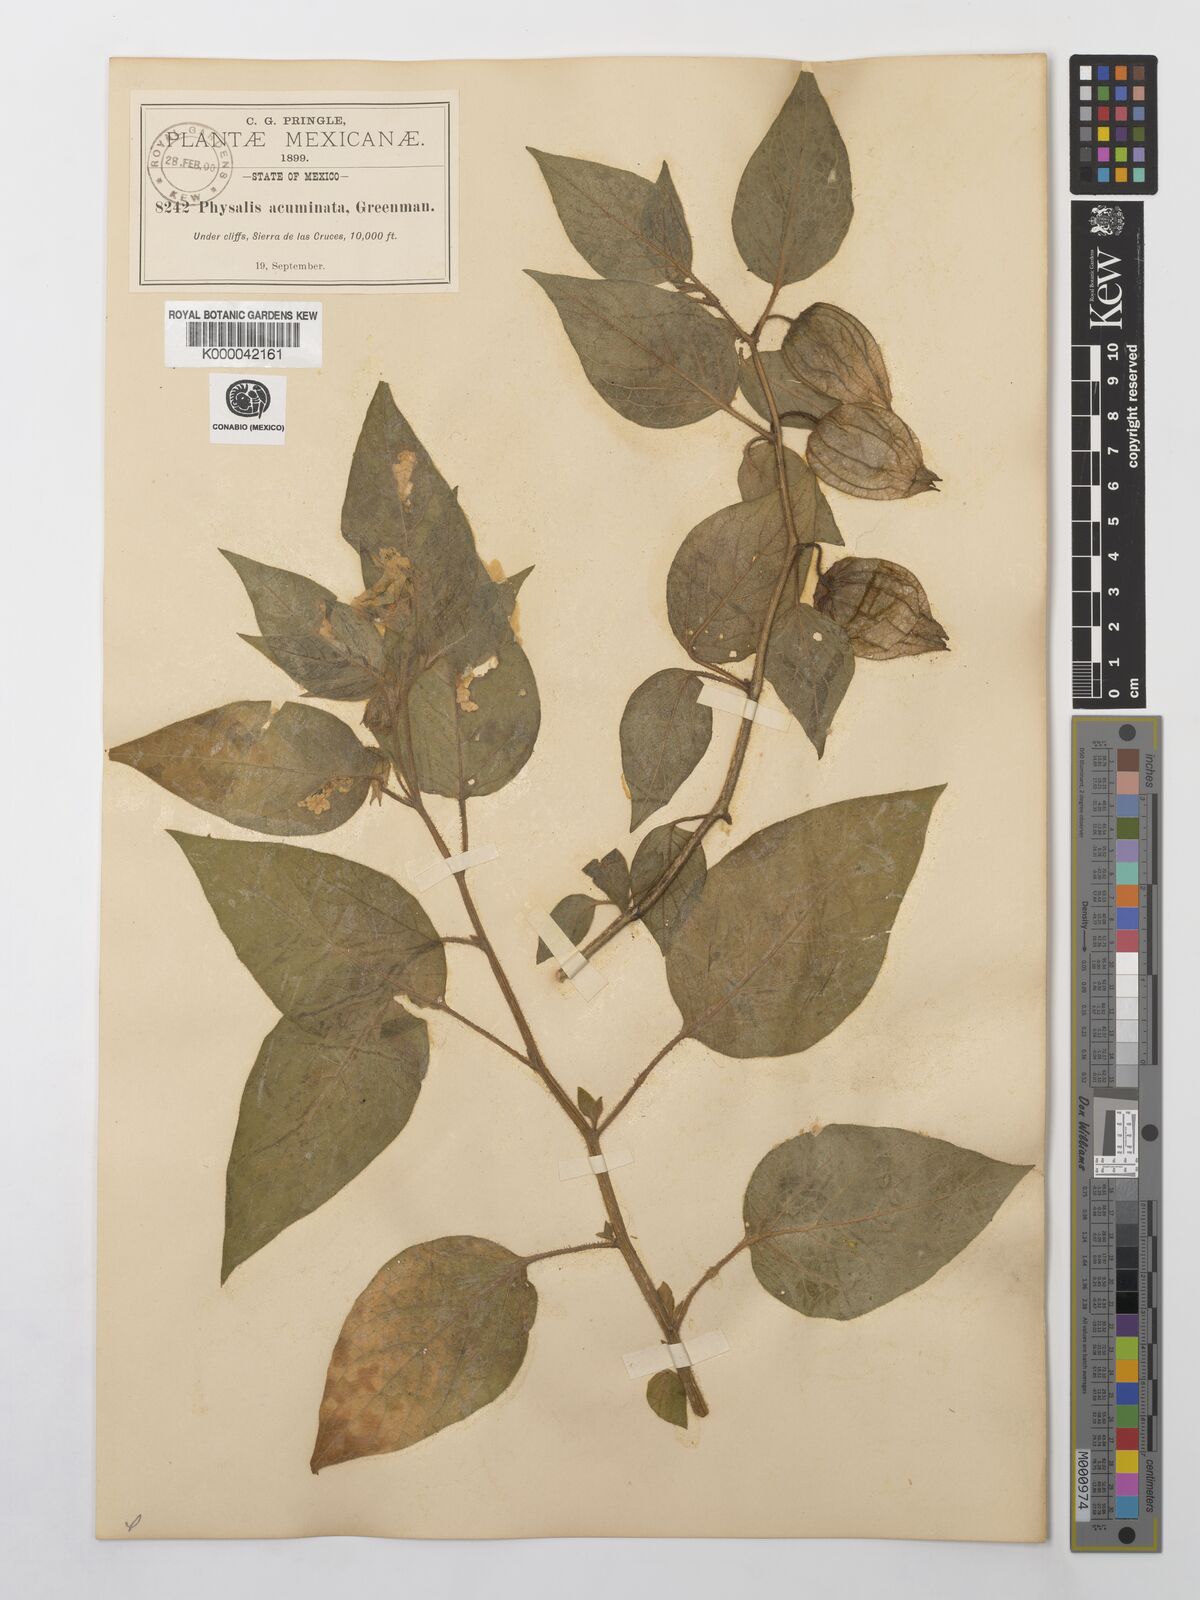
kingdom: Plantae
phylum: Tracheophyta
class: Magnoliopsida
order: Solanales
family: Solanaceae
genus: Physalis
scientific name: Physalis stapelioides
